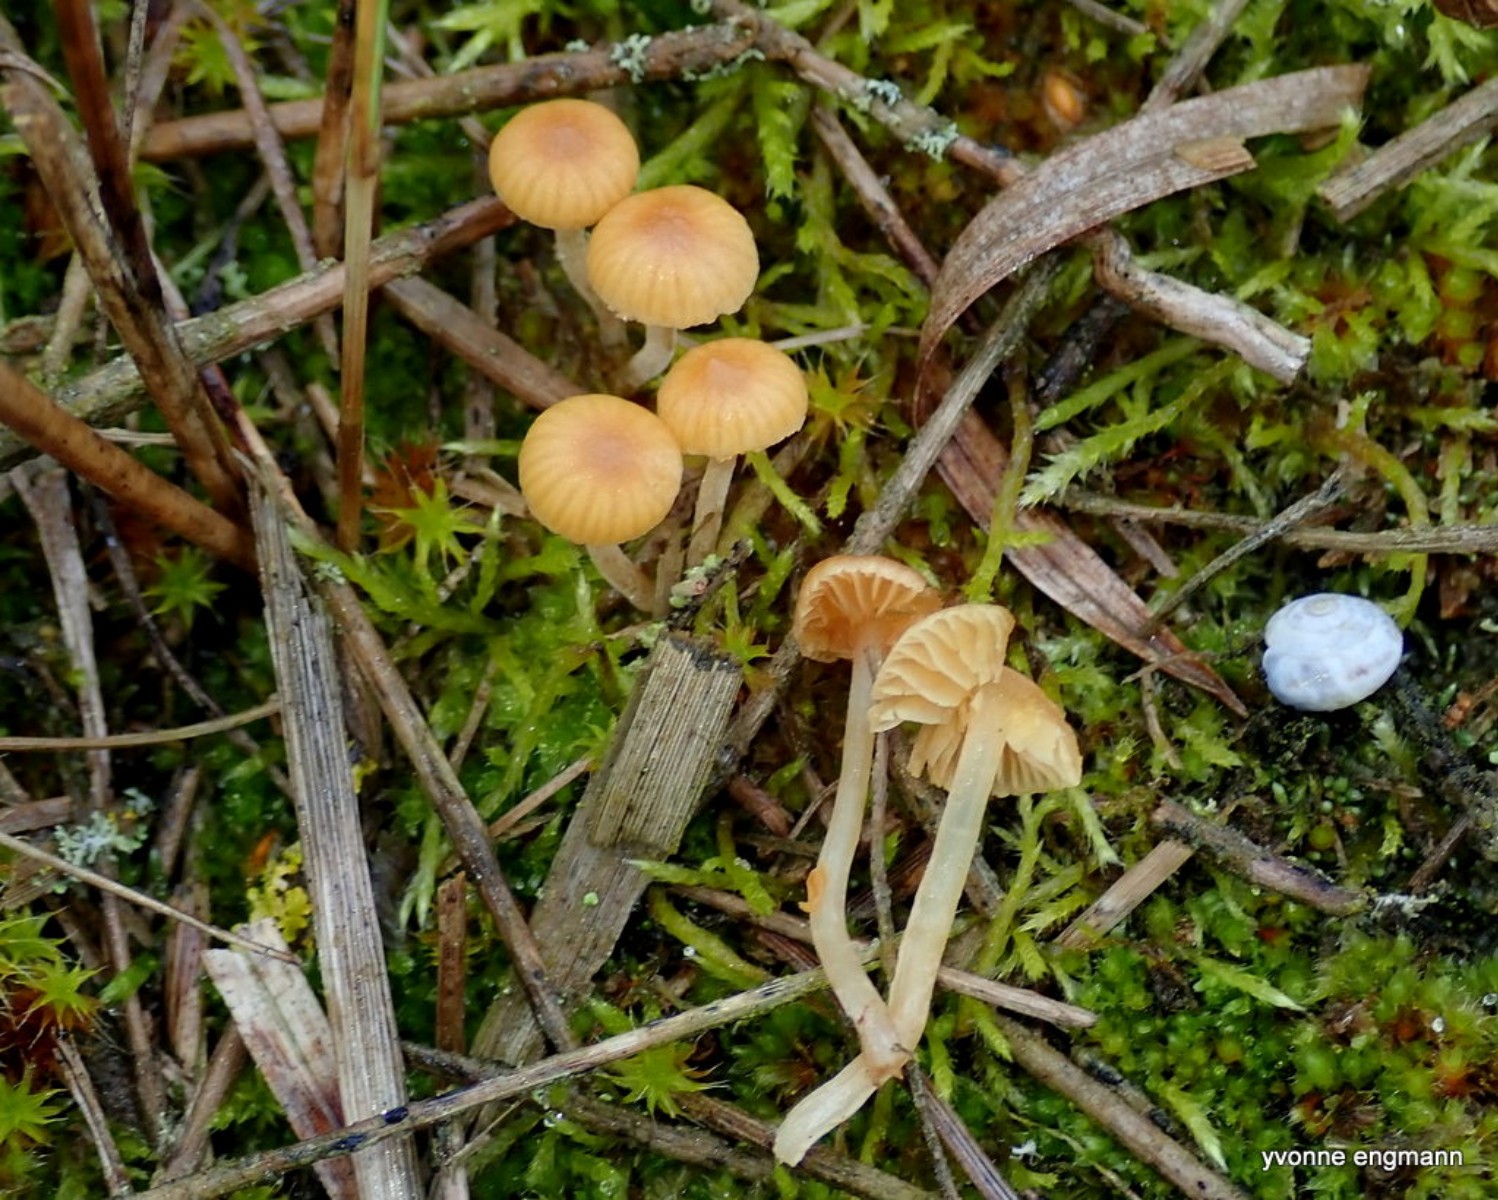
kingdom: Fungi
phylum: Basidiomycota
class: Agaricomycetes
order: Agaricales
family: Hymenogastraceae
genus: Galerina
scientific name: Galerina
